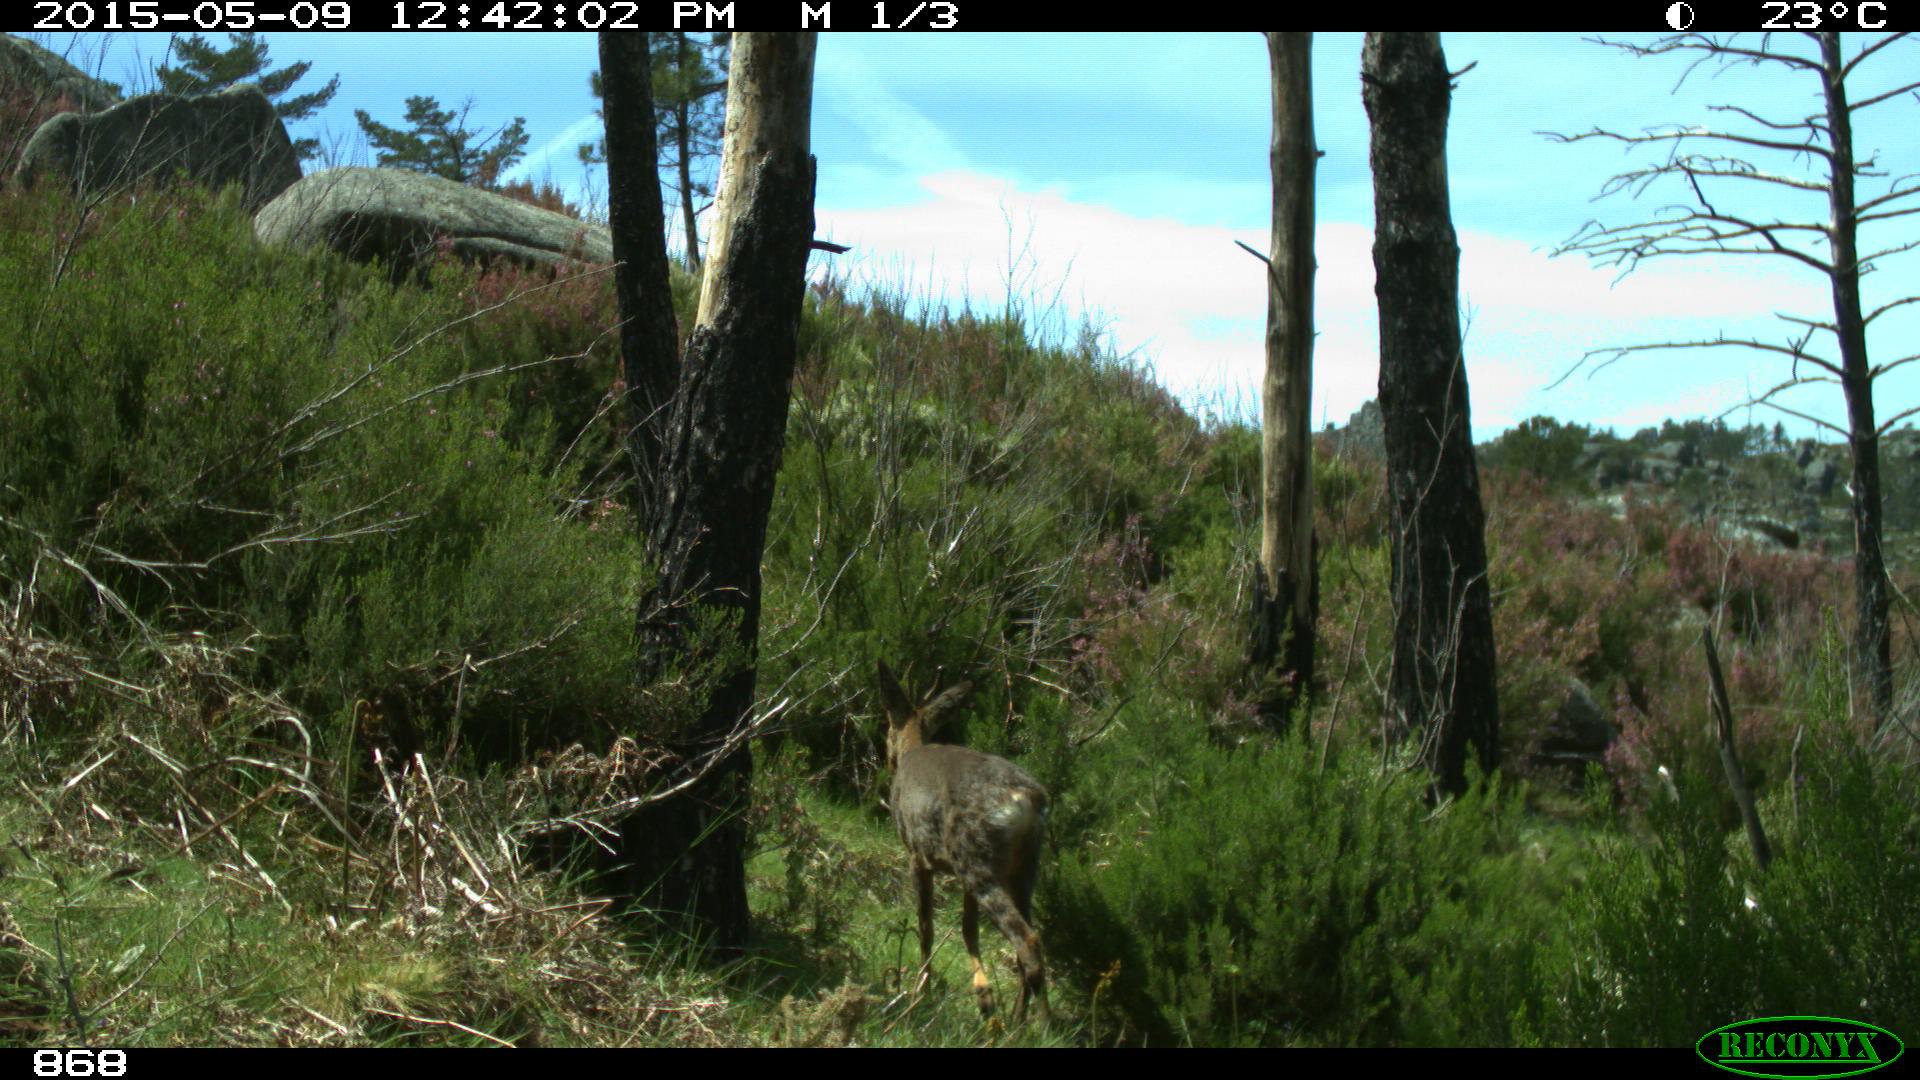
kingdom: Animalia
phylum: Chordata
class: Mammalia
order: Artiodactyla
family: Cervidae
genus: Capreolus
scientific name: Capreolus capreolus
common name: Western roe deer
